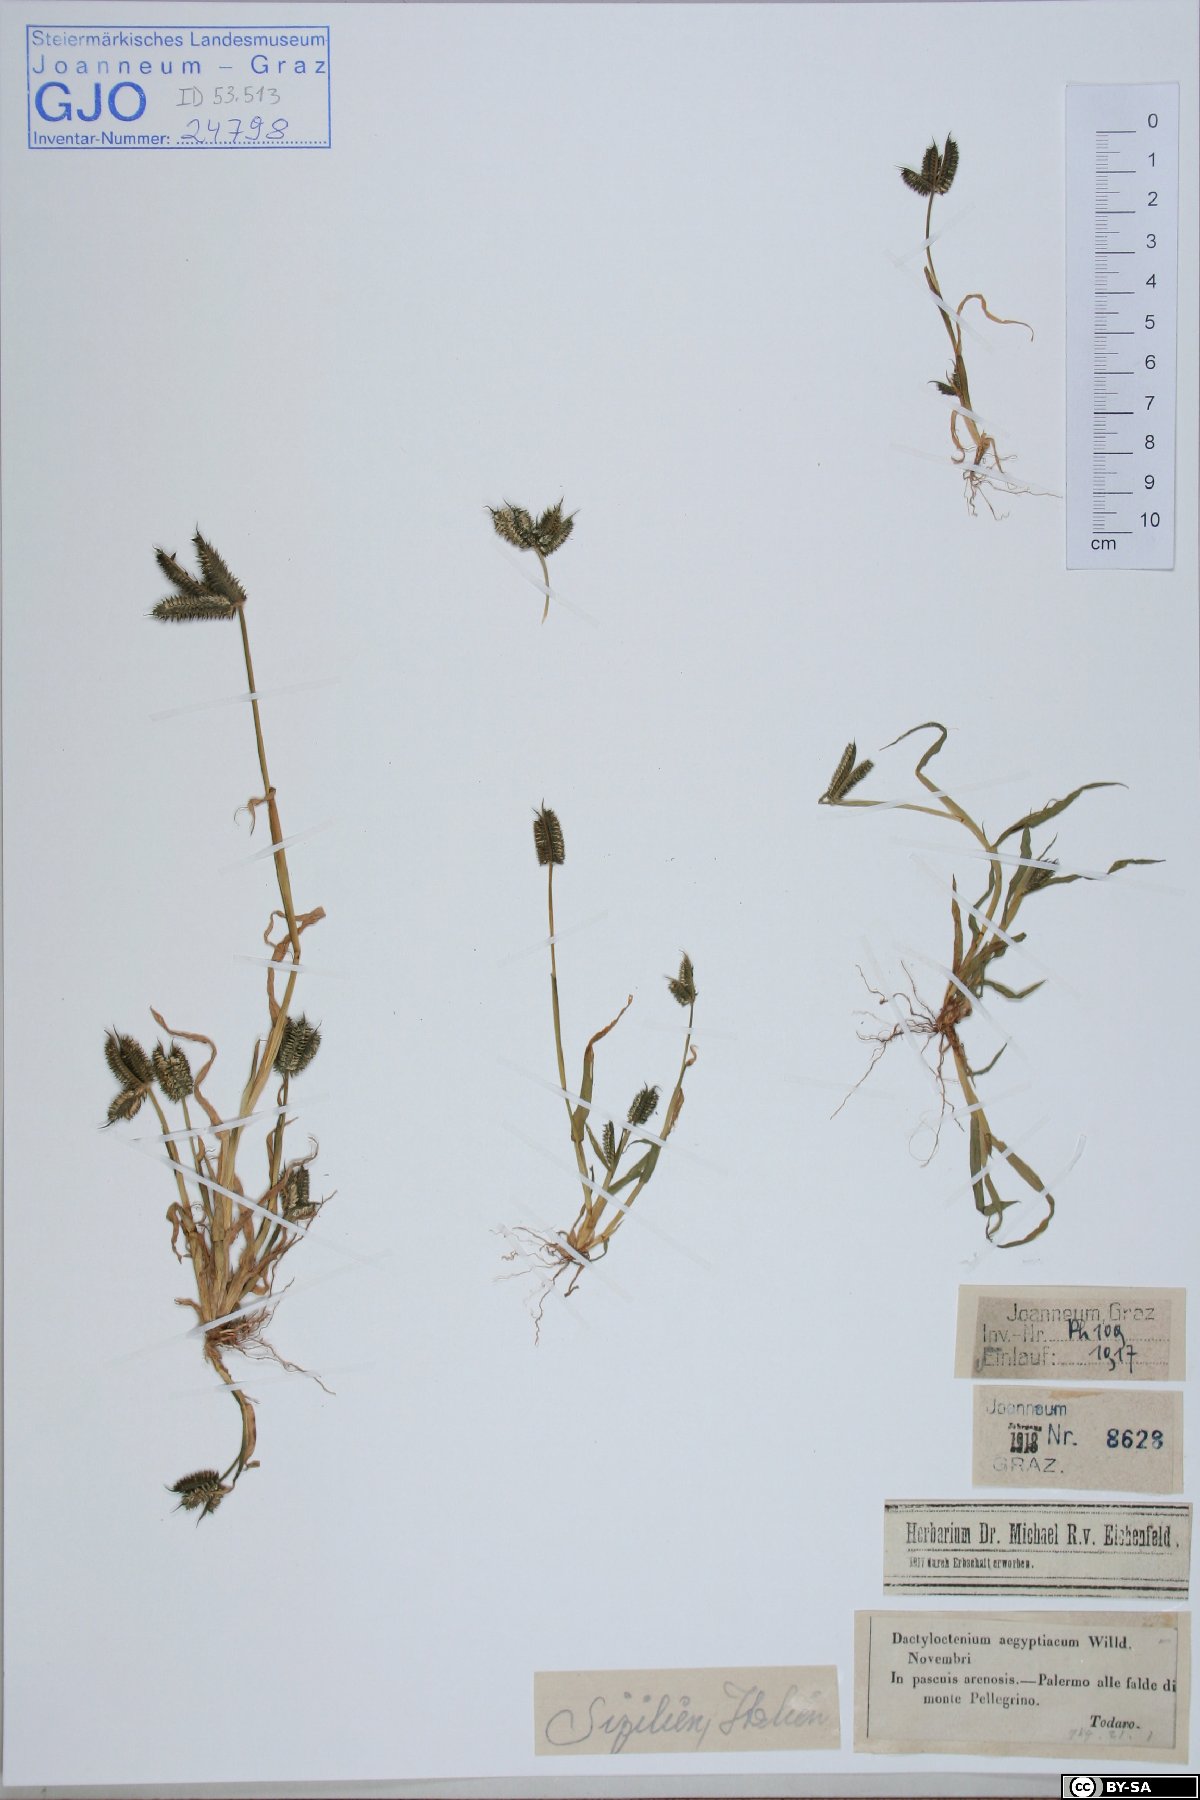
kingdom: Plantae
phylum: Tracheophyta
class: Liliopsida
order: Poales
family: Poaceae
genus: Dactyloctenium
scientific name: Dactyloctenium aegyptium
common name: Egyptian grass
